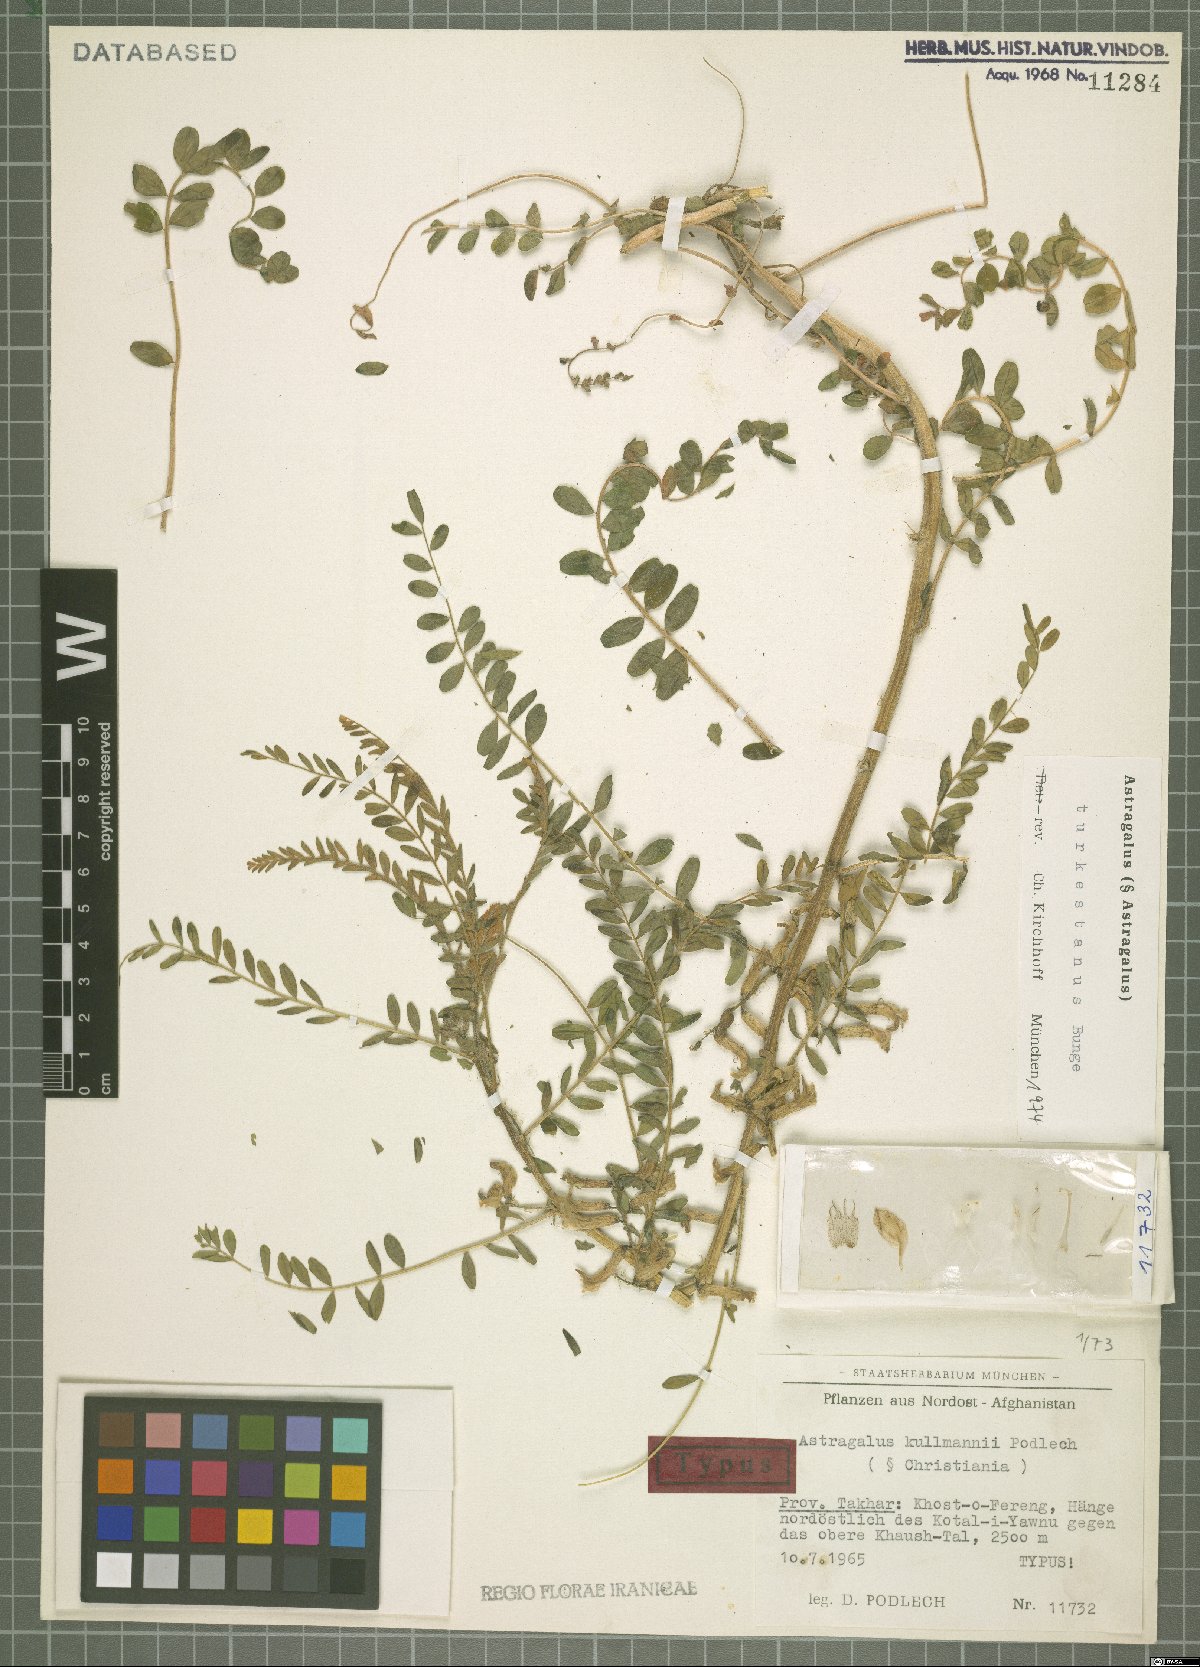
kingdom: Plantae
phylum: Tracheophyta
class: Magnoliopsida
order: Fabales
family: Fabaceae
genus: Astragalus
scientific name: Astragalus turkestanus
